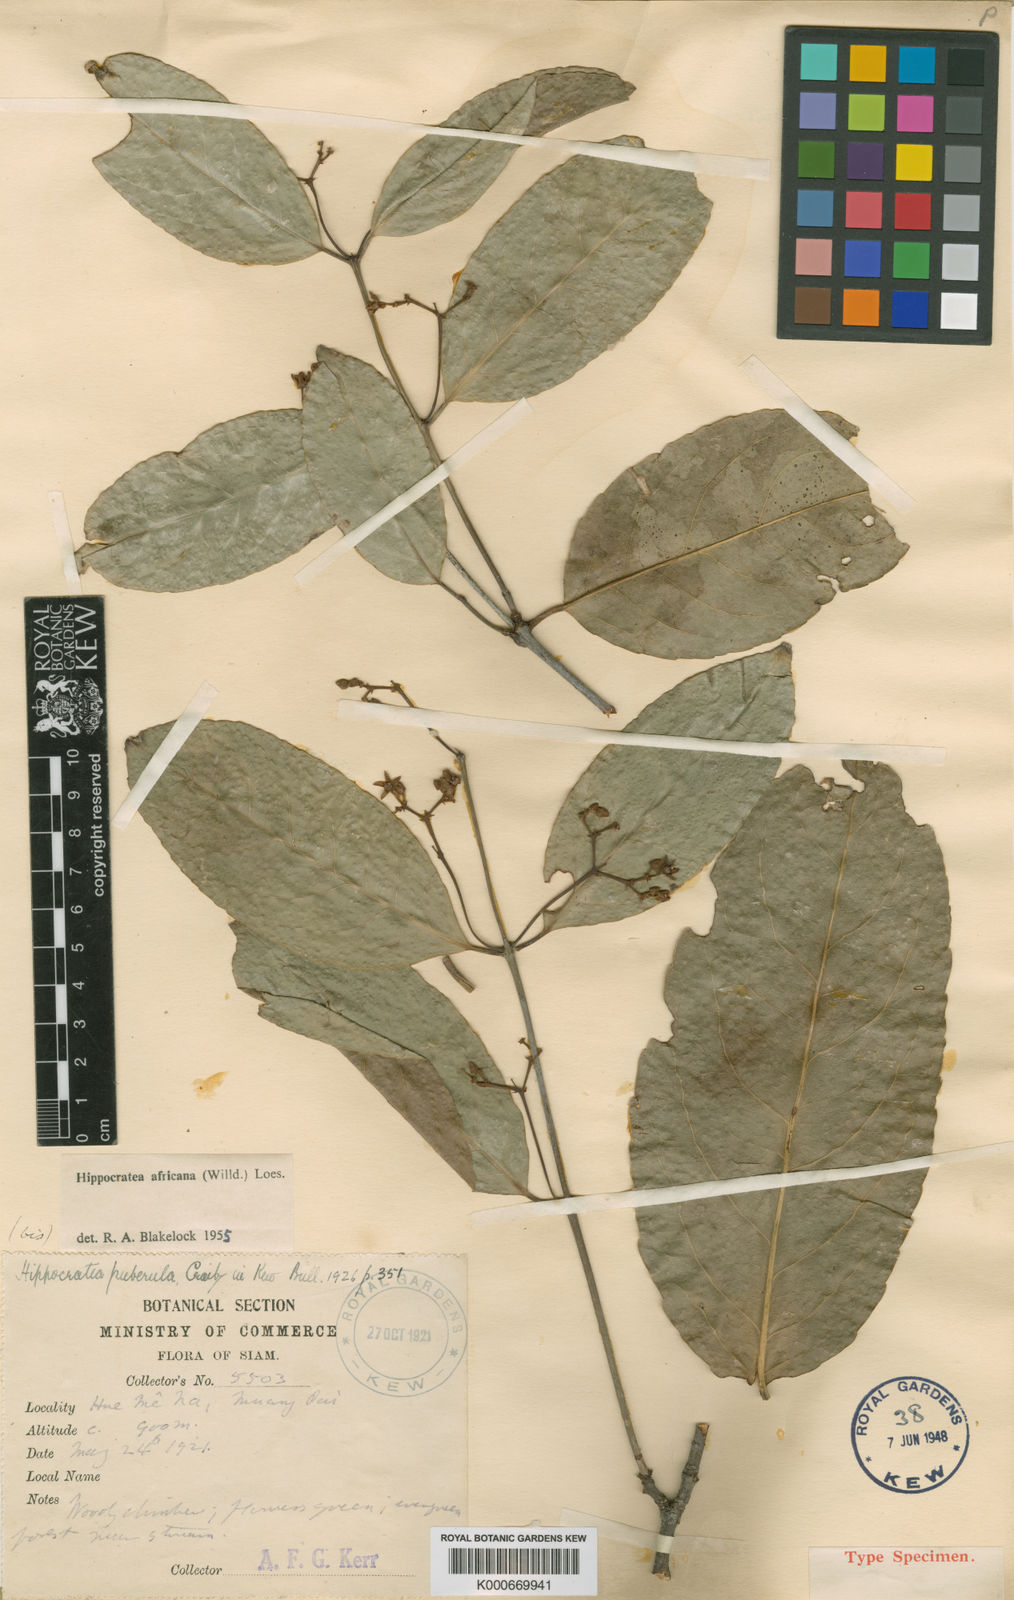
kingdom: Plantae
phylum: Tracheophyta
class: Magnoliopsida
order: Celastrales
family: Celastraceae
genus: Loeseneriella
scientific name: Loeseneriella
